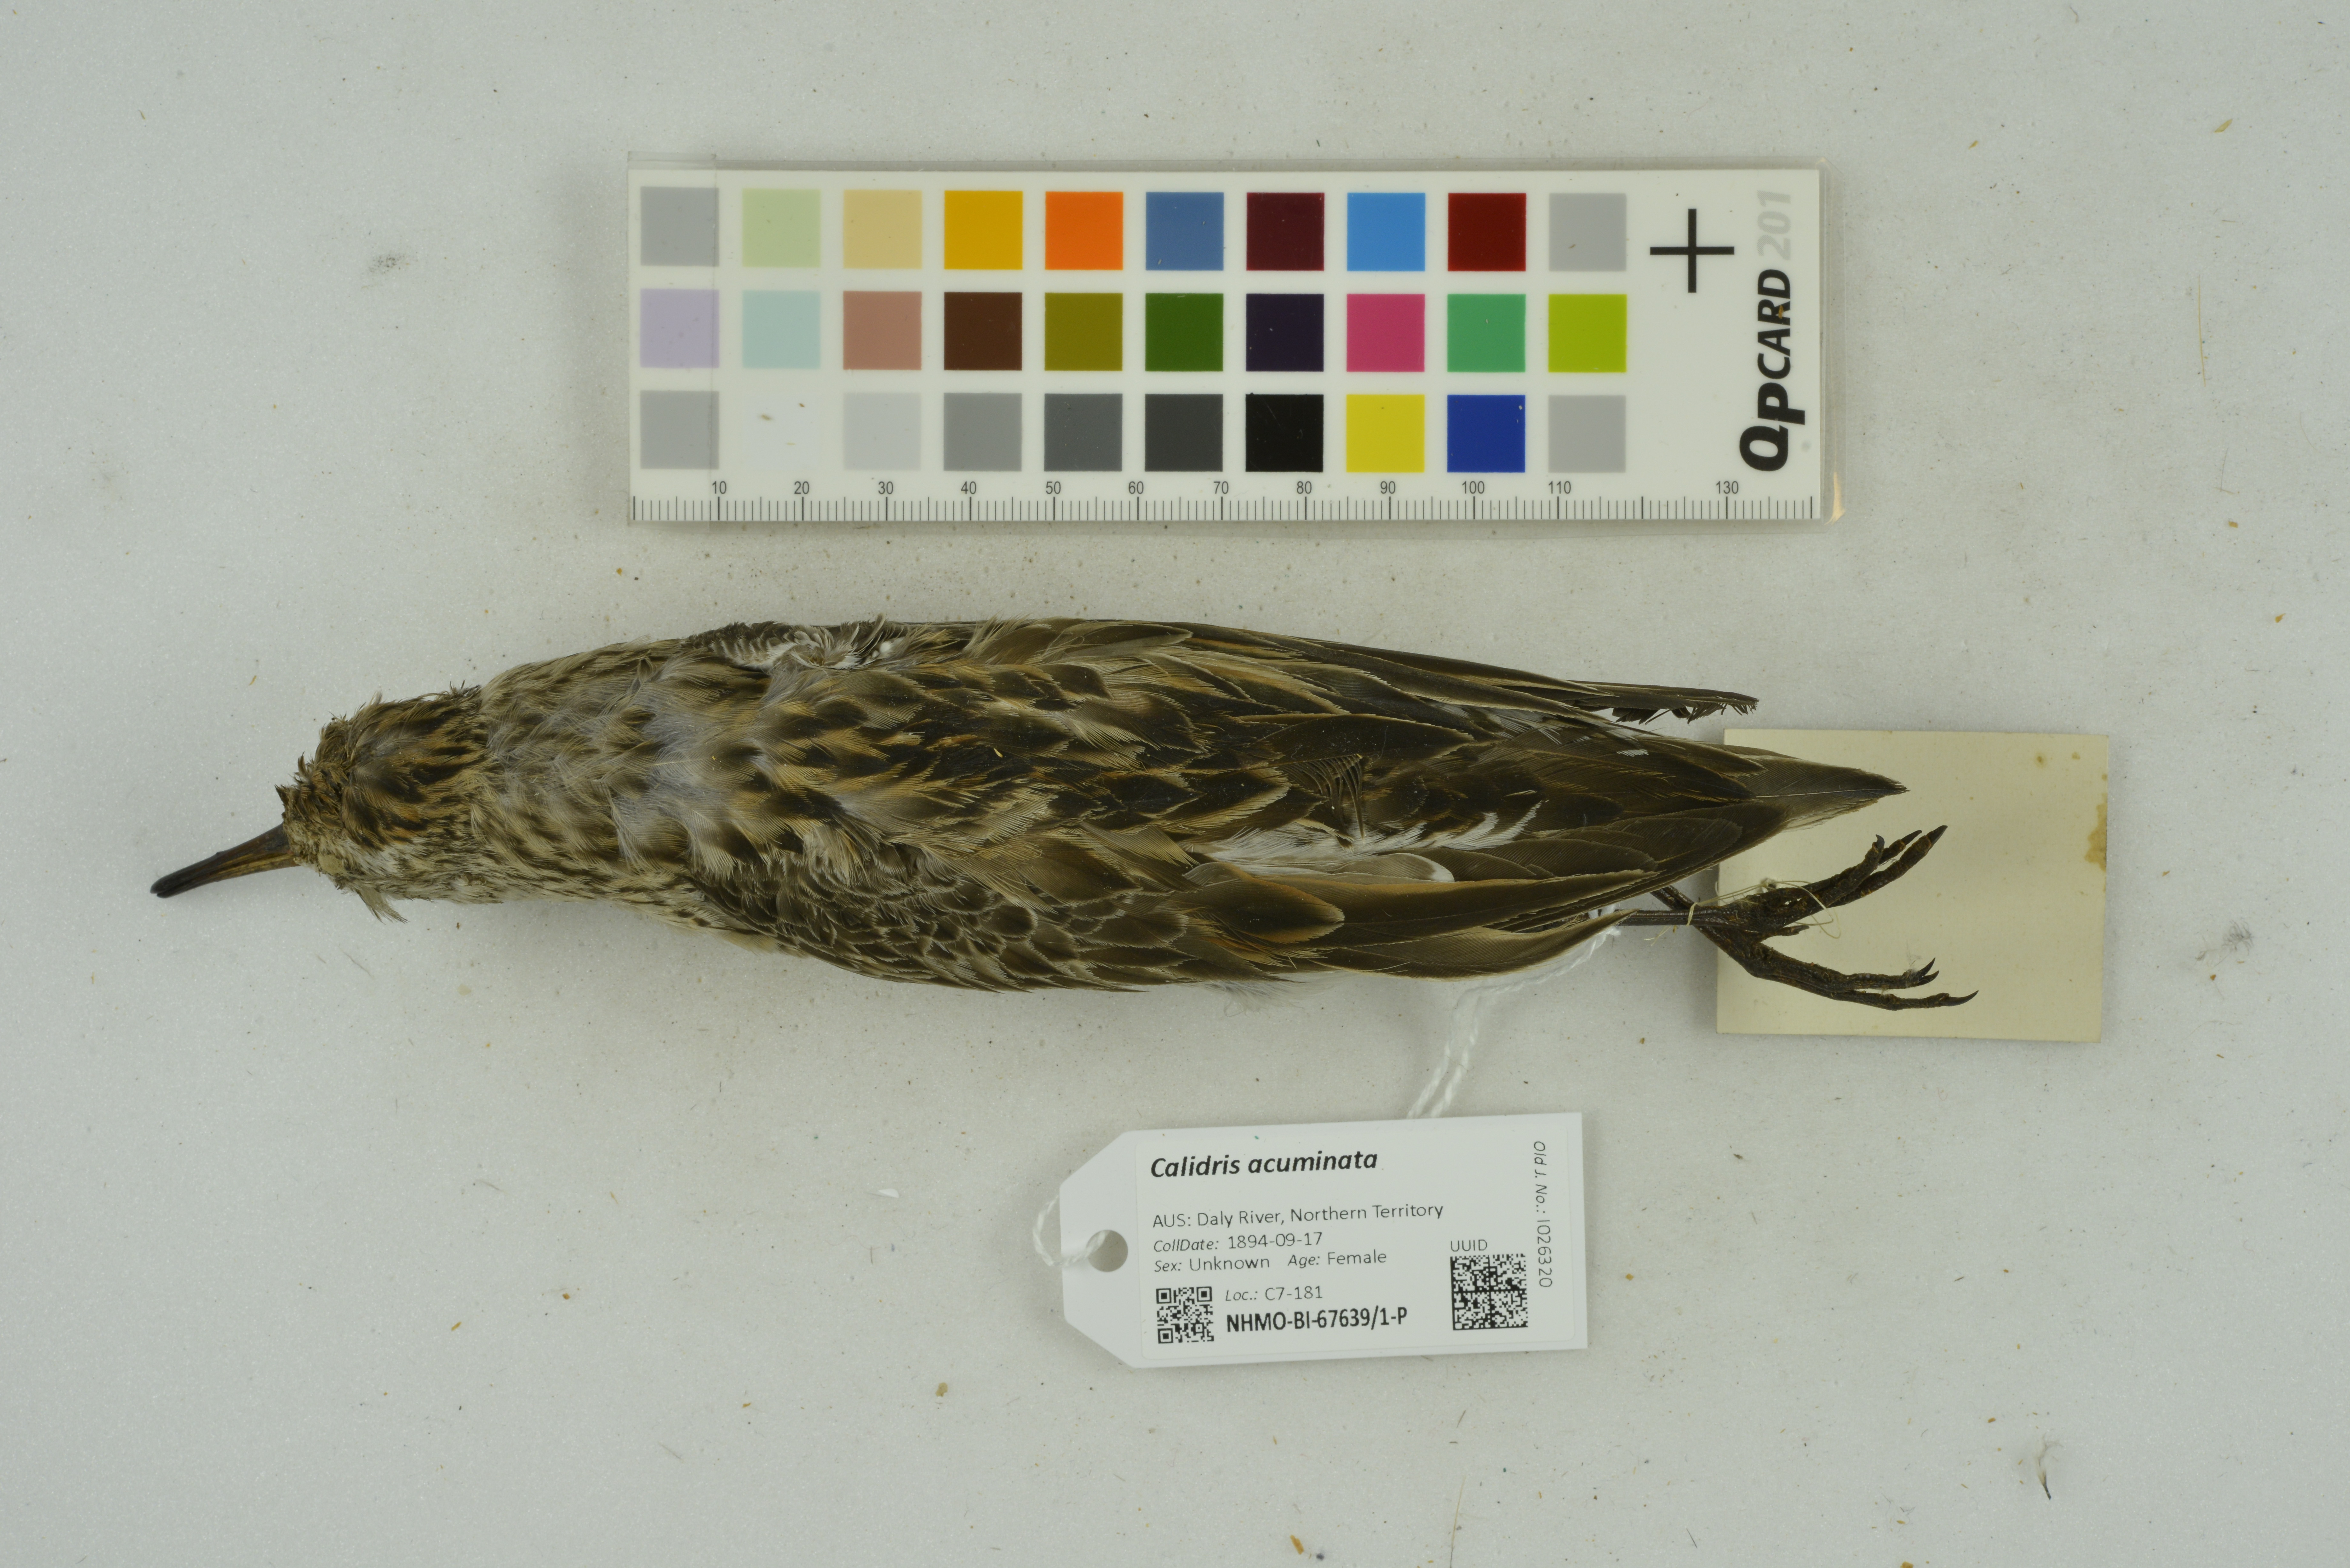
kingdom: Animalia
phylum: Chordata
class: Aves
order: Charadriiformes
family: Scolopacidae
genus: Calidris
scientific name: Calidris acuminata
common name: Sharp-tailed sandpiper
